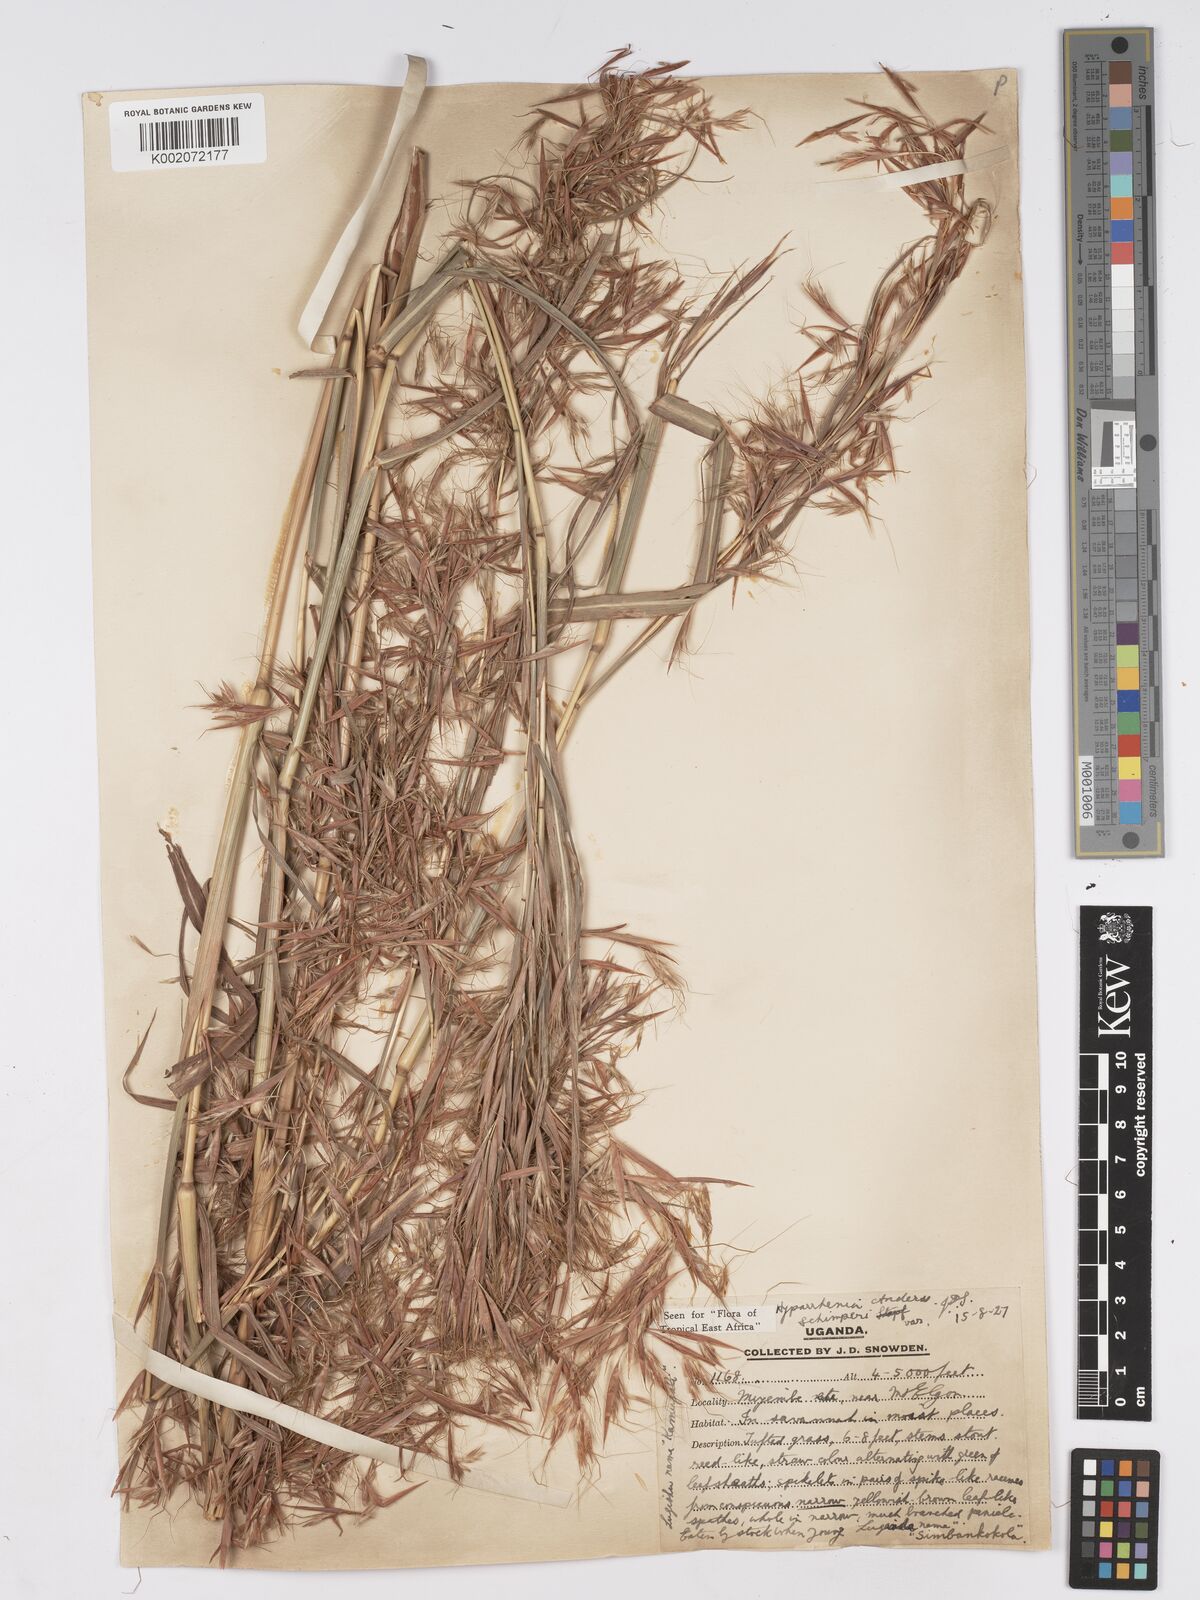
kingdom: Plantae
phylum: Tracheophyta
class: Liliopsida
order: Poales
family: Poaceae
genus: Hyparrhenia
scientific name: Hyparrhenia schimperi
